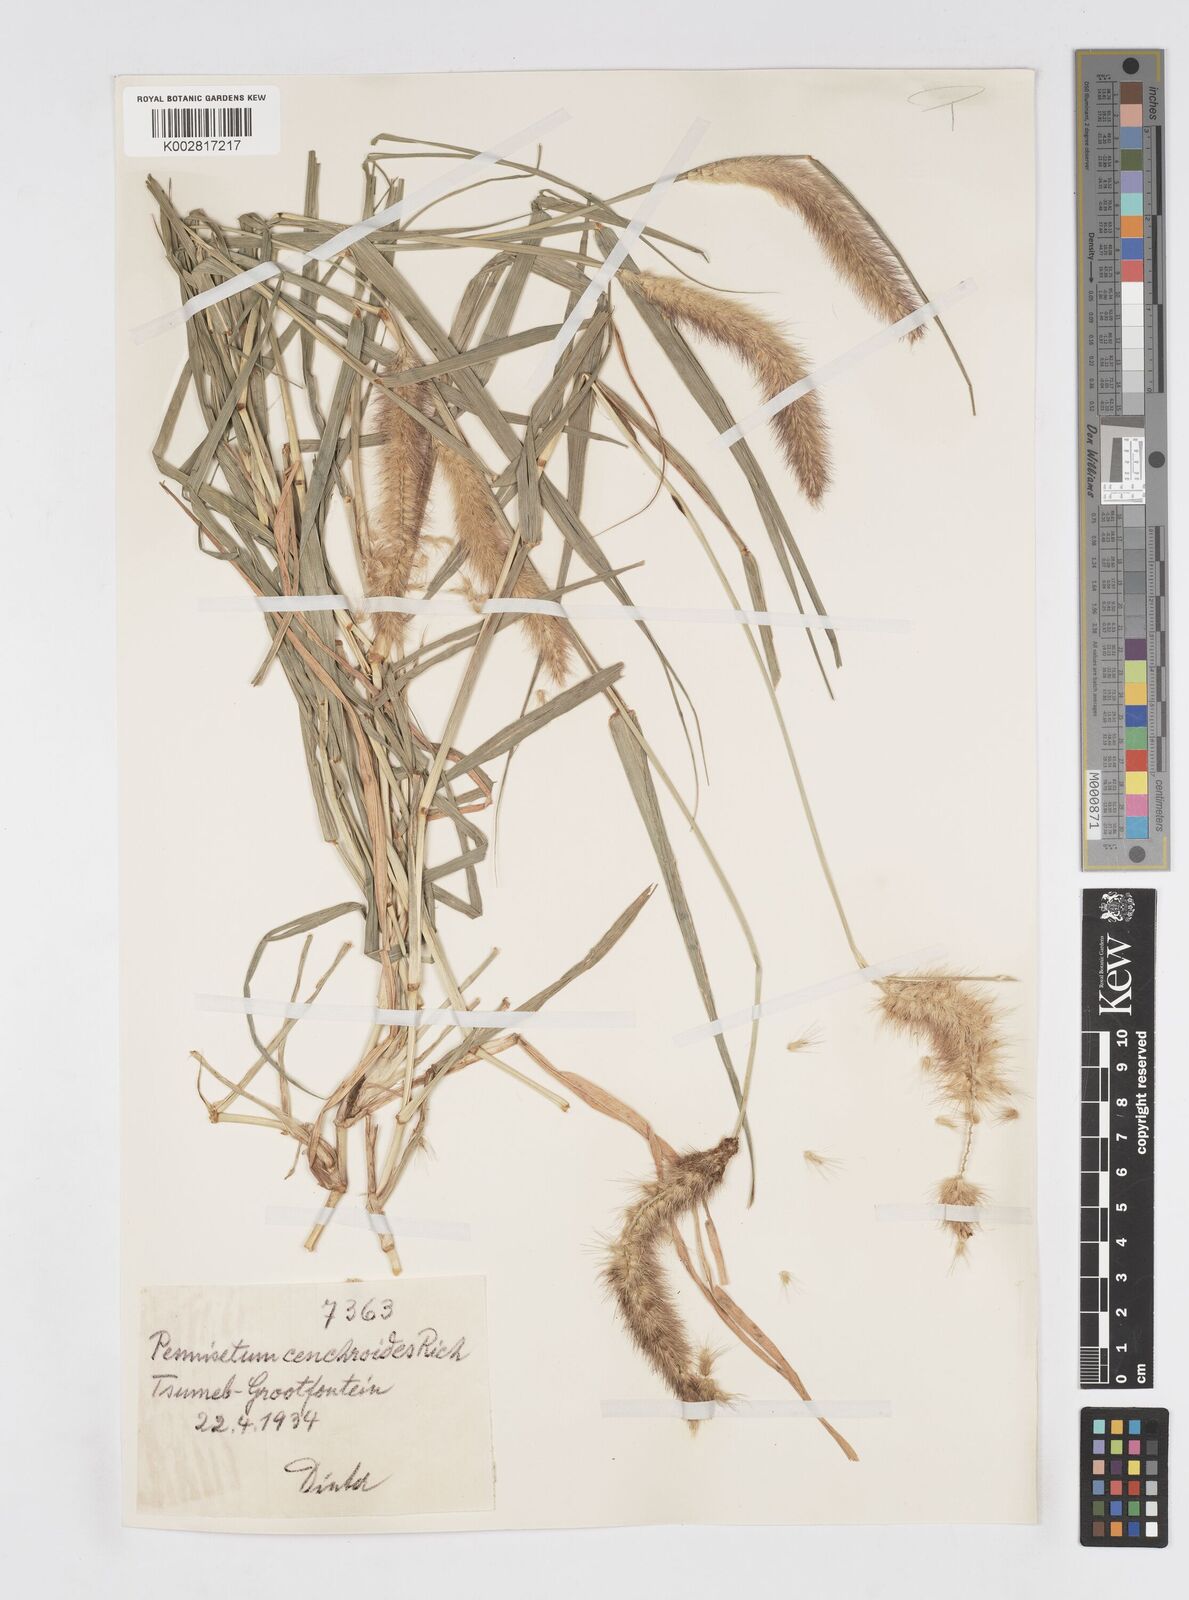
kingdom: Plantae
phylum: Tracheophyta
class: Liliopsida
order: Poales
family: Poaceae
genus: Cenchrus
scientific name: Cenchrus ciliaris
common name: Buffelgrass
